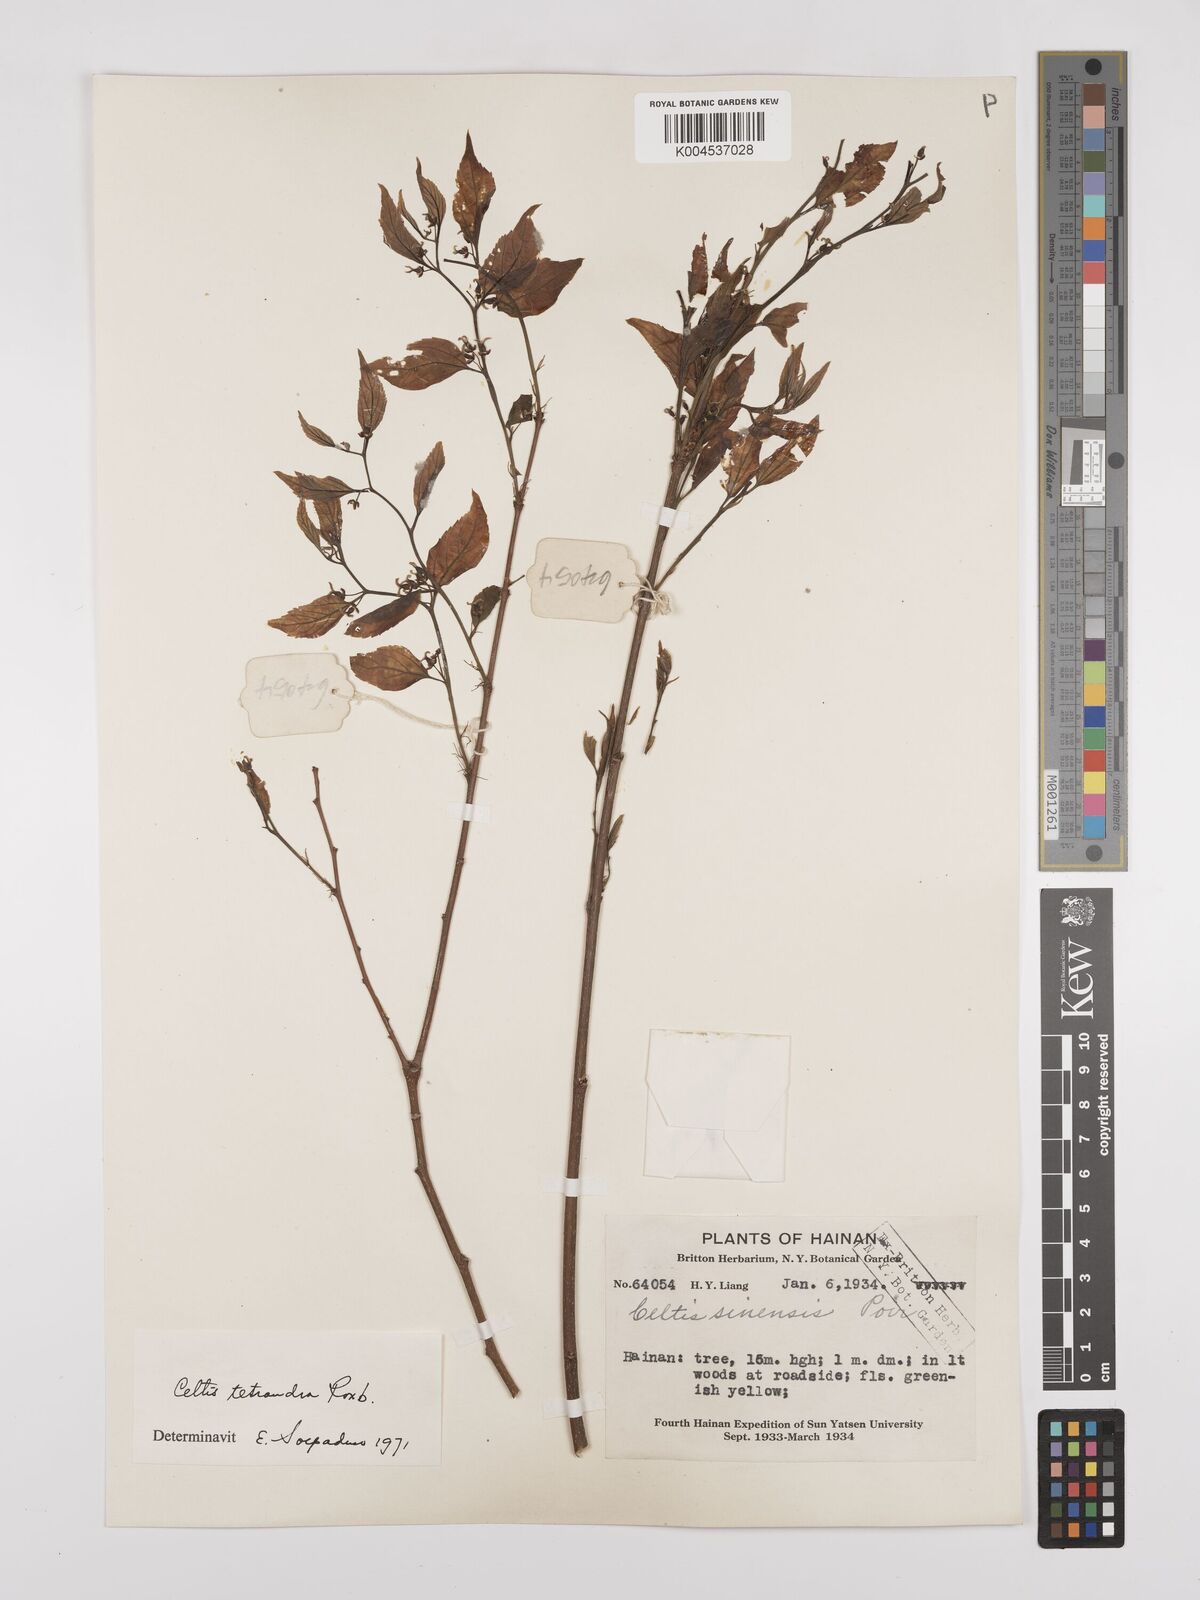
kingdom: Plantae
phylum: Tracheophyta
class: Magnoliopsida
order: Rosales
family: Cannabaceae
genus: Celtis
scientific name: Celtis tetrandra
